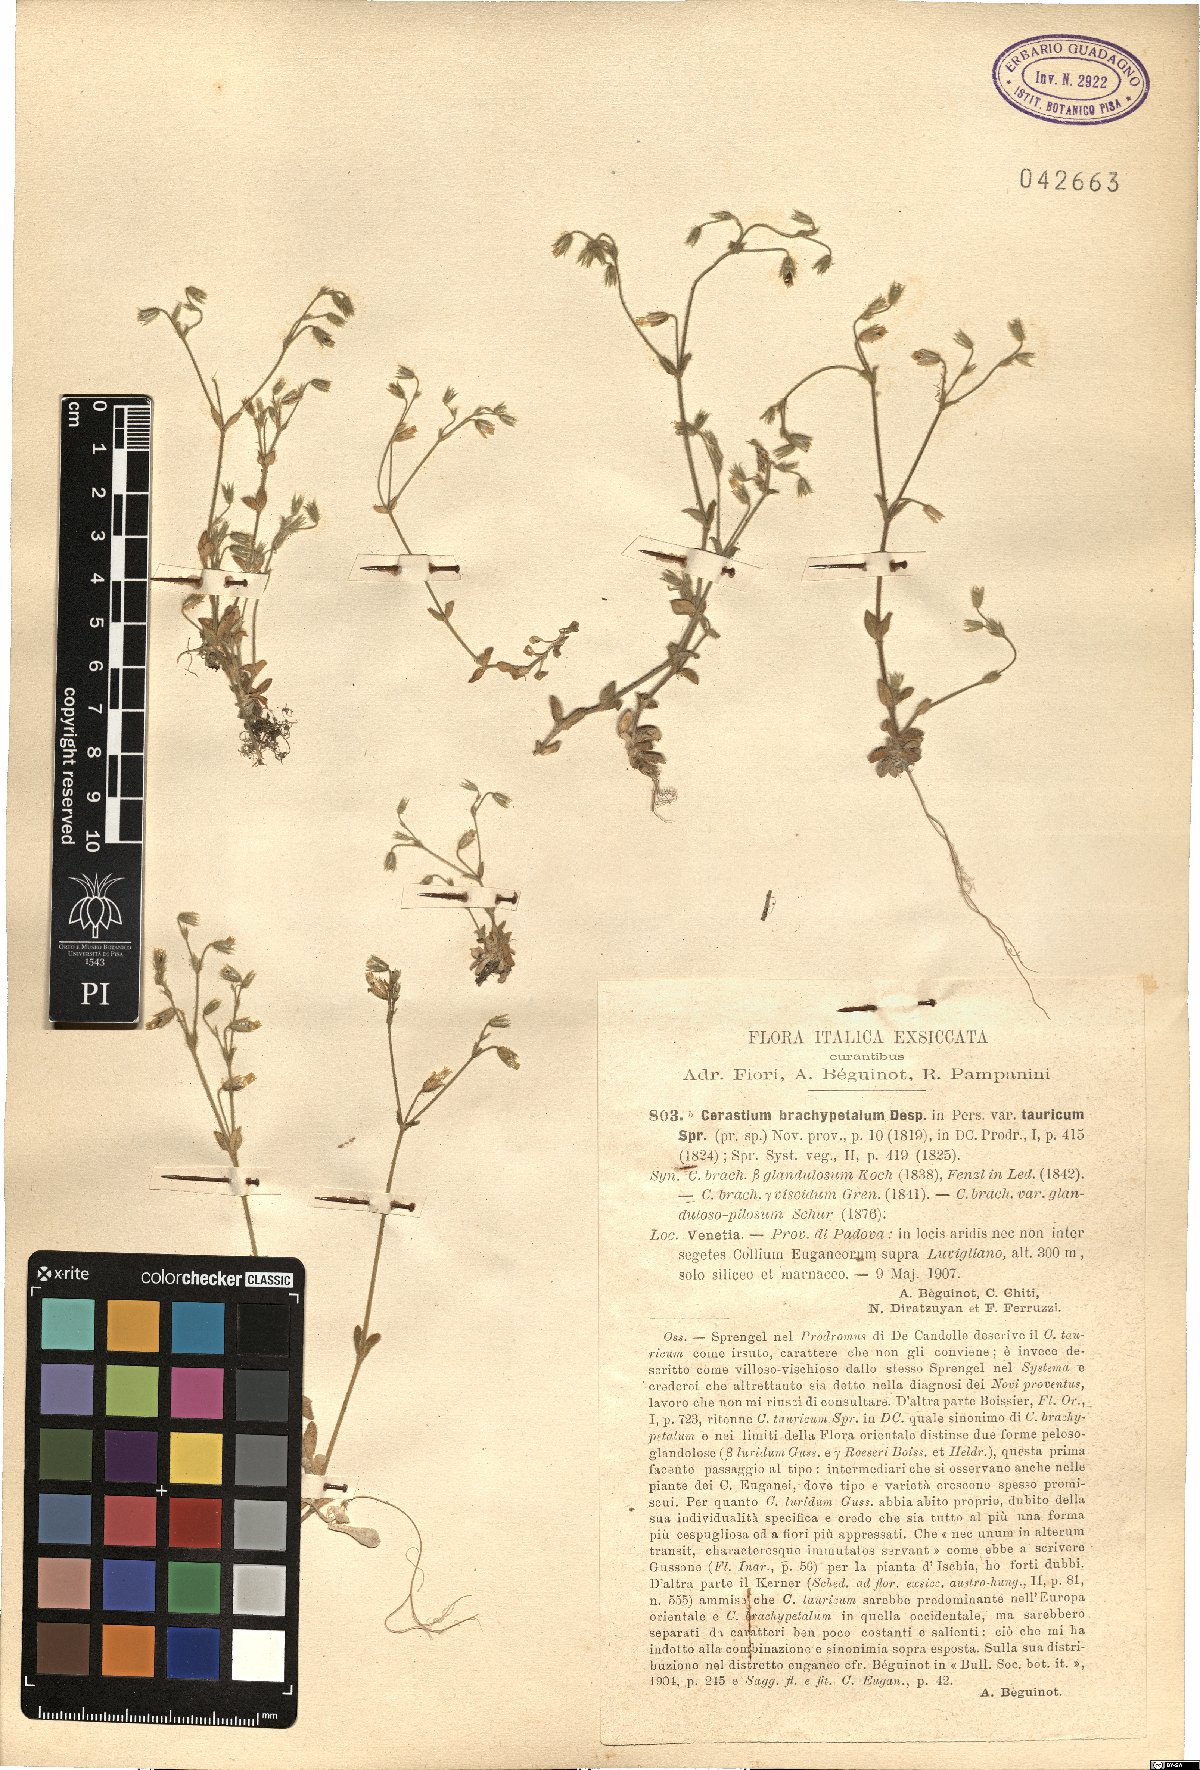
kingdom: Plantae
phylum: Tracheophyta
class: Magnoliopsida
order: Caryophyllales
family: Caryophyllaceae
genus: Cerastium
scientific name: Cerastium brachypetalum
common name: Grey mouse-ear
